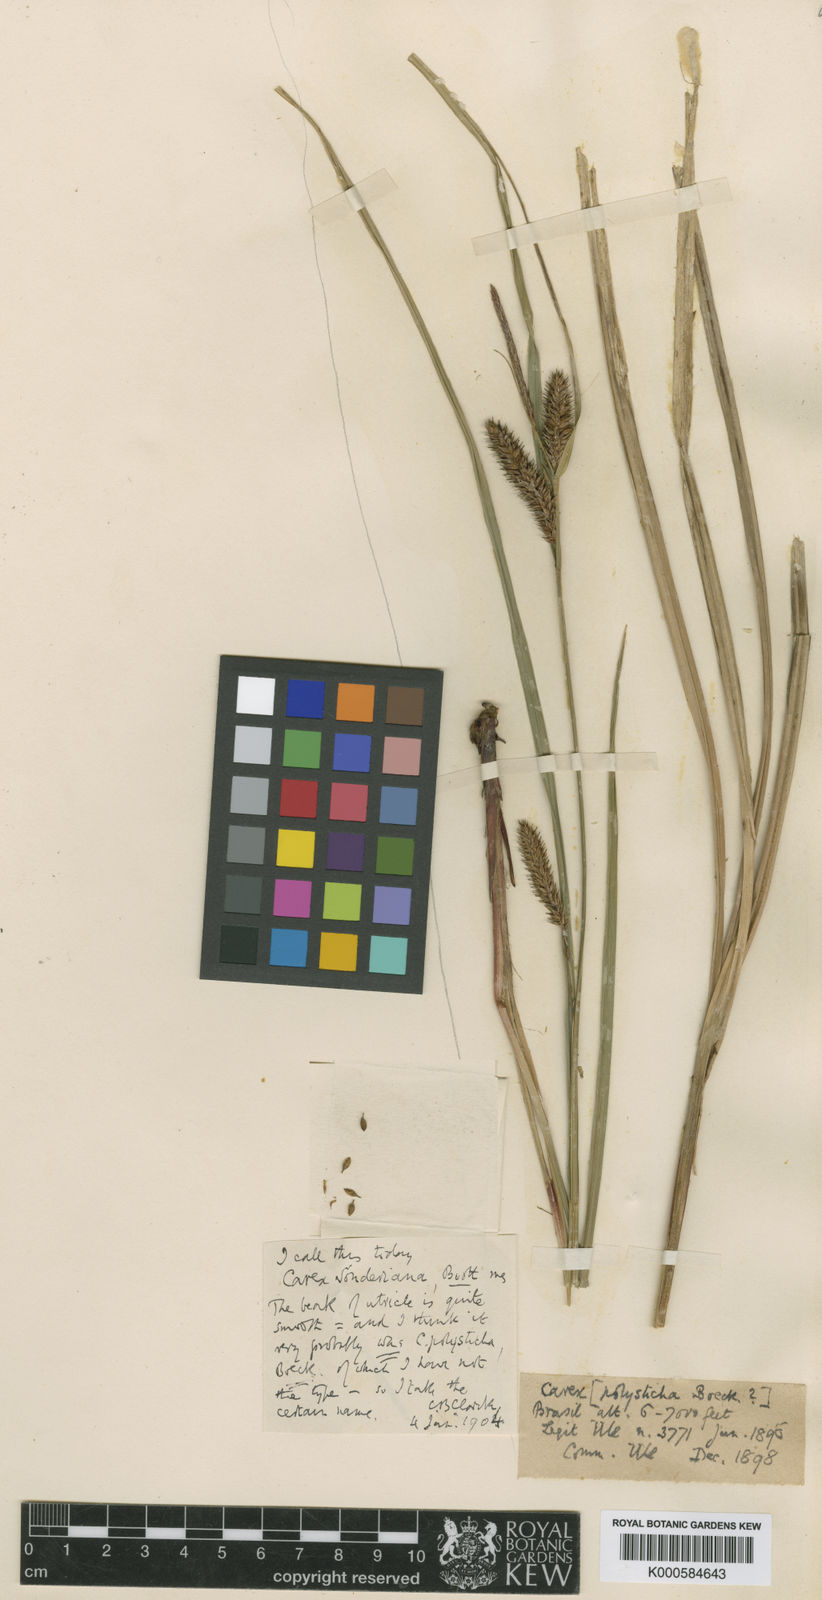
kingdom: Plantae
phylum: Tracheophyta
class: Liliopsida
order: Poales
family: Cyperaceae
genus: Carex
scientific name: Carex purpureovaginata
